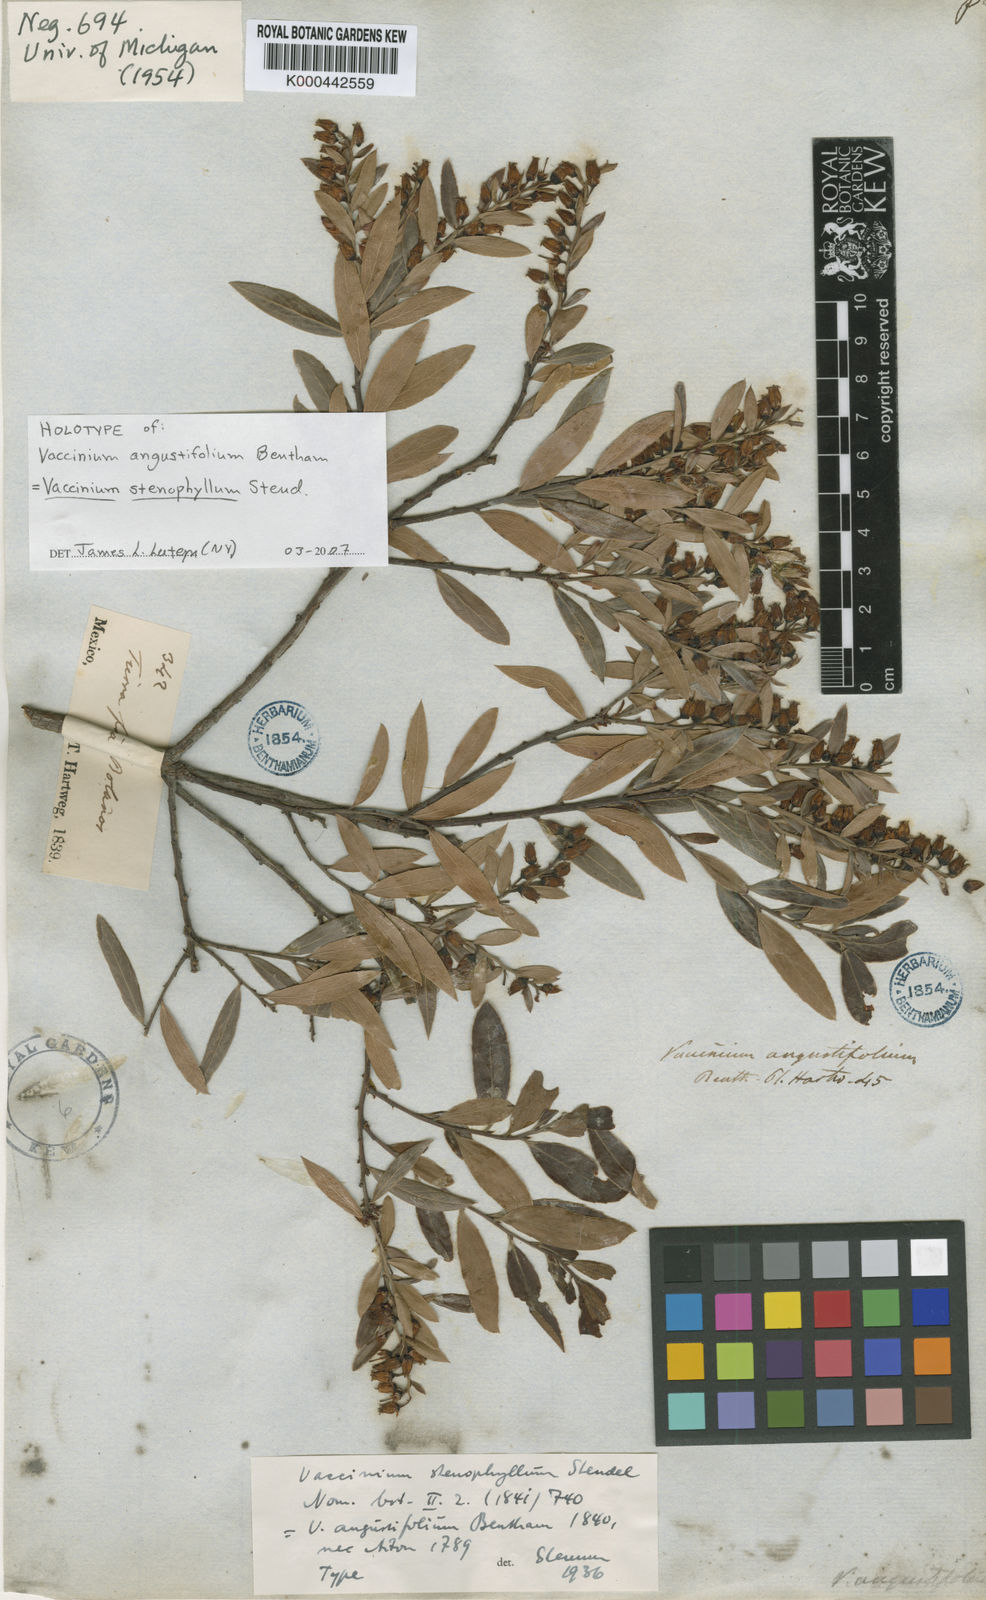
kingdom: Plantae
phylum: Tracheophyta
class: Magnoliopsida
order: Ericales
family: Ericaceae
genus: Vaccinium
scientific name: Vaccinium stenophyllum
